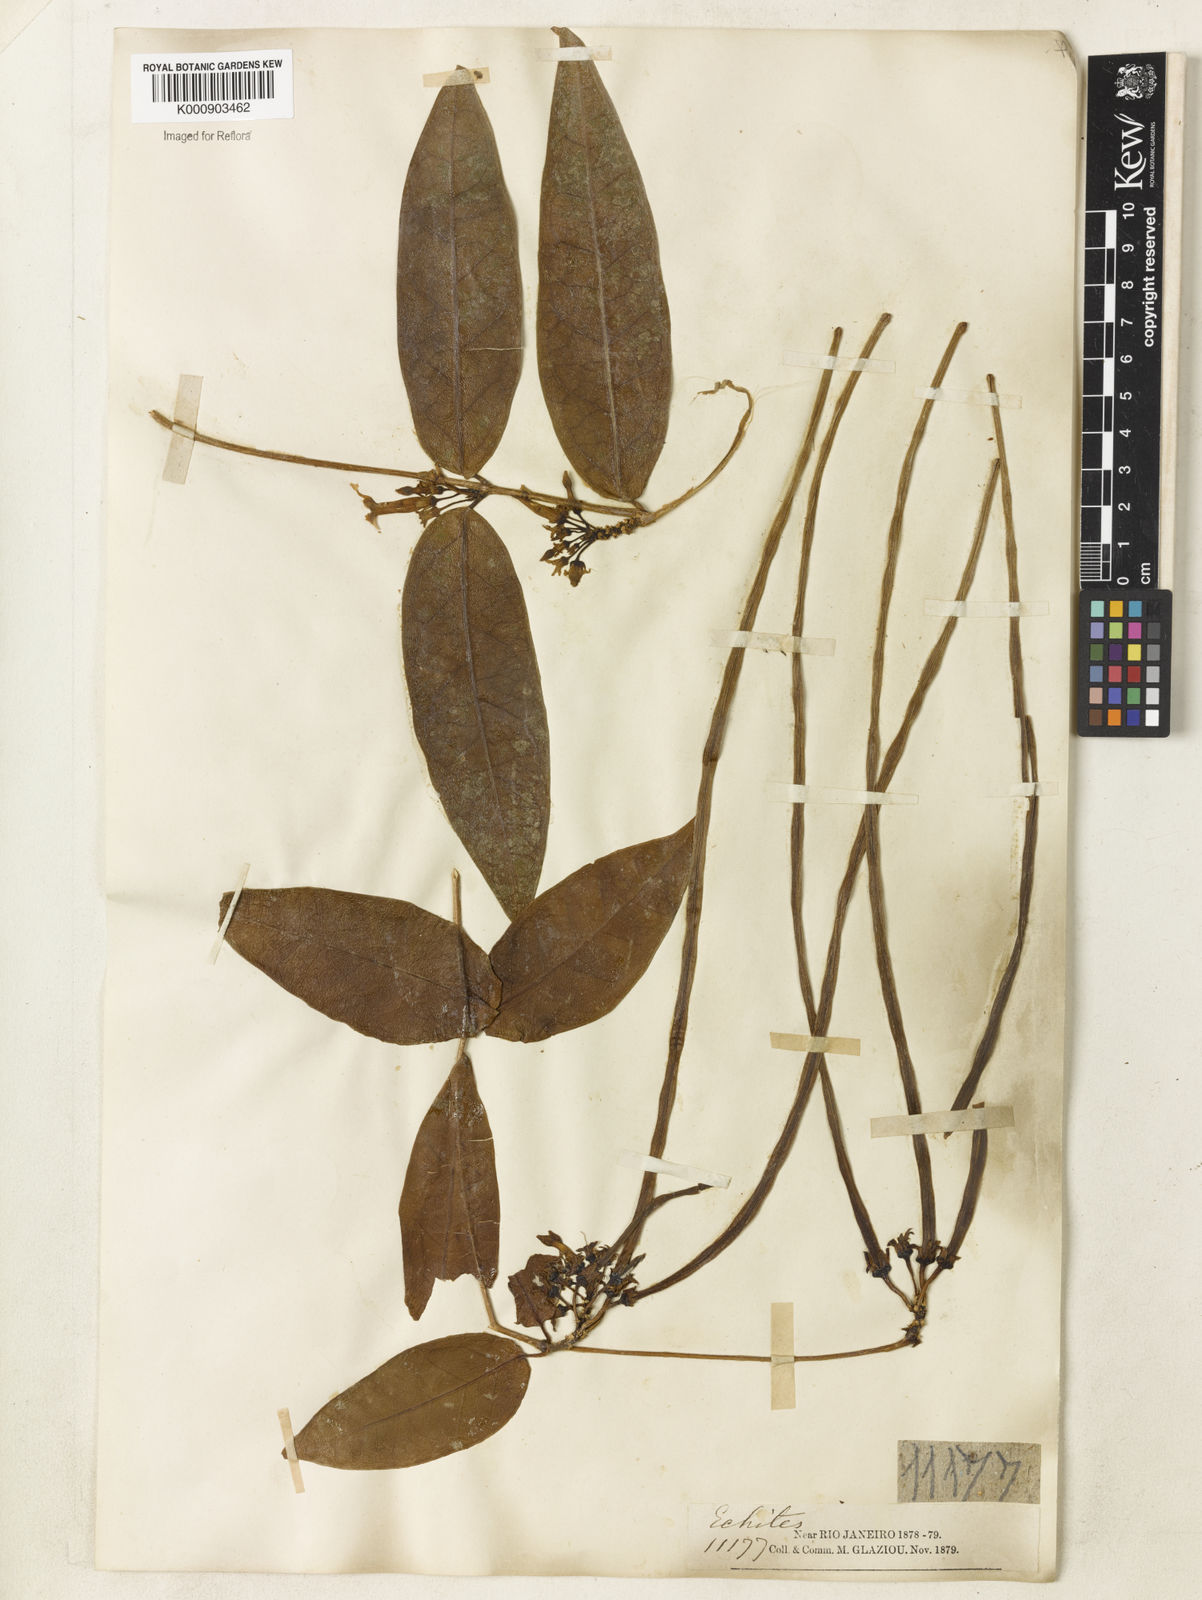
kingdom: Plantae
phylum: Tracheophyta
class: Magnoliopsida
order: Gentianales
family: Apocynaceae
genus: Prestonia
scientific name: Prestonia coalita
